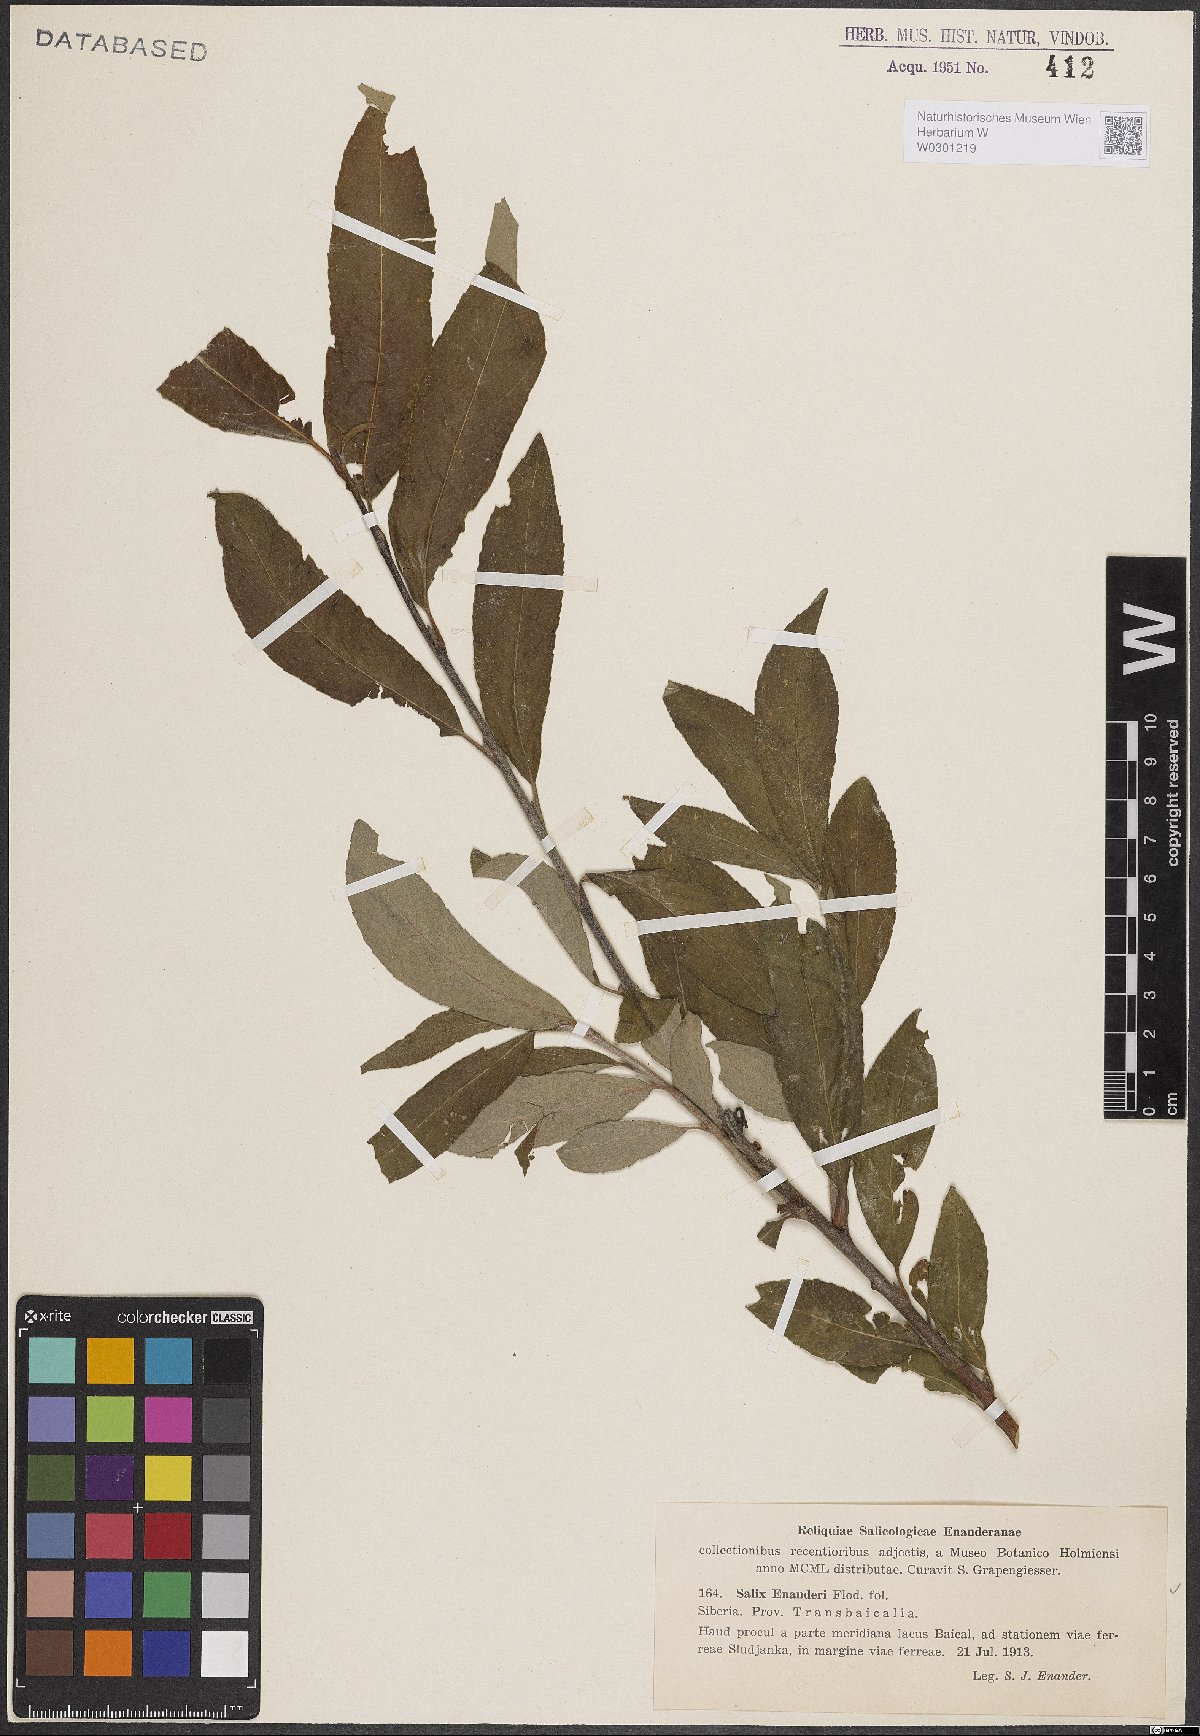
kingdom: Plantae
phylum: Tracheophyta
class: Magnoliopsida
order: Malpighiales
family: Salicaceae
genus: Salix
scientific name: Salix abscondita
